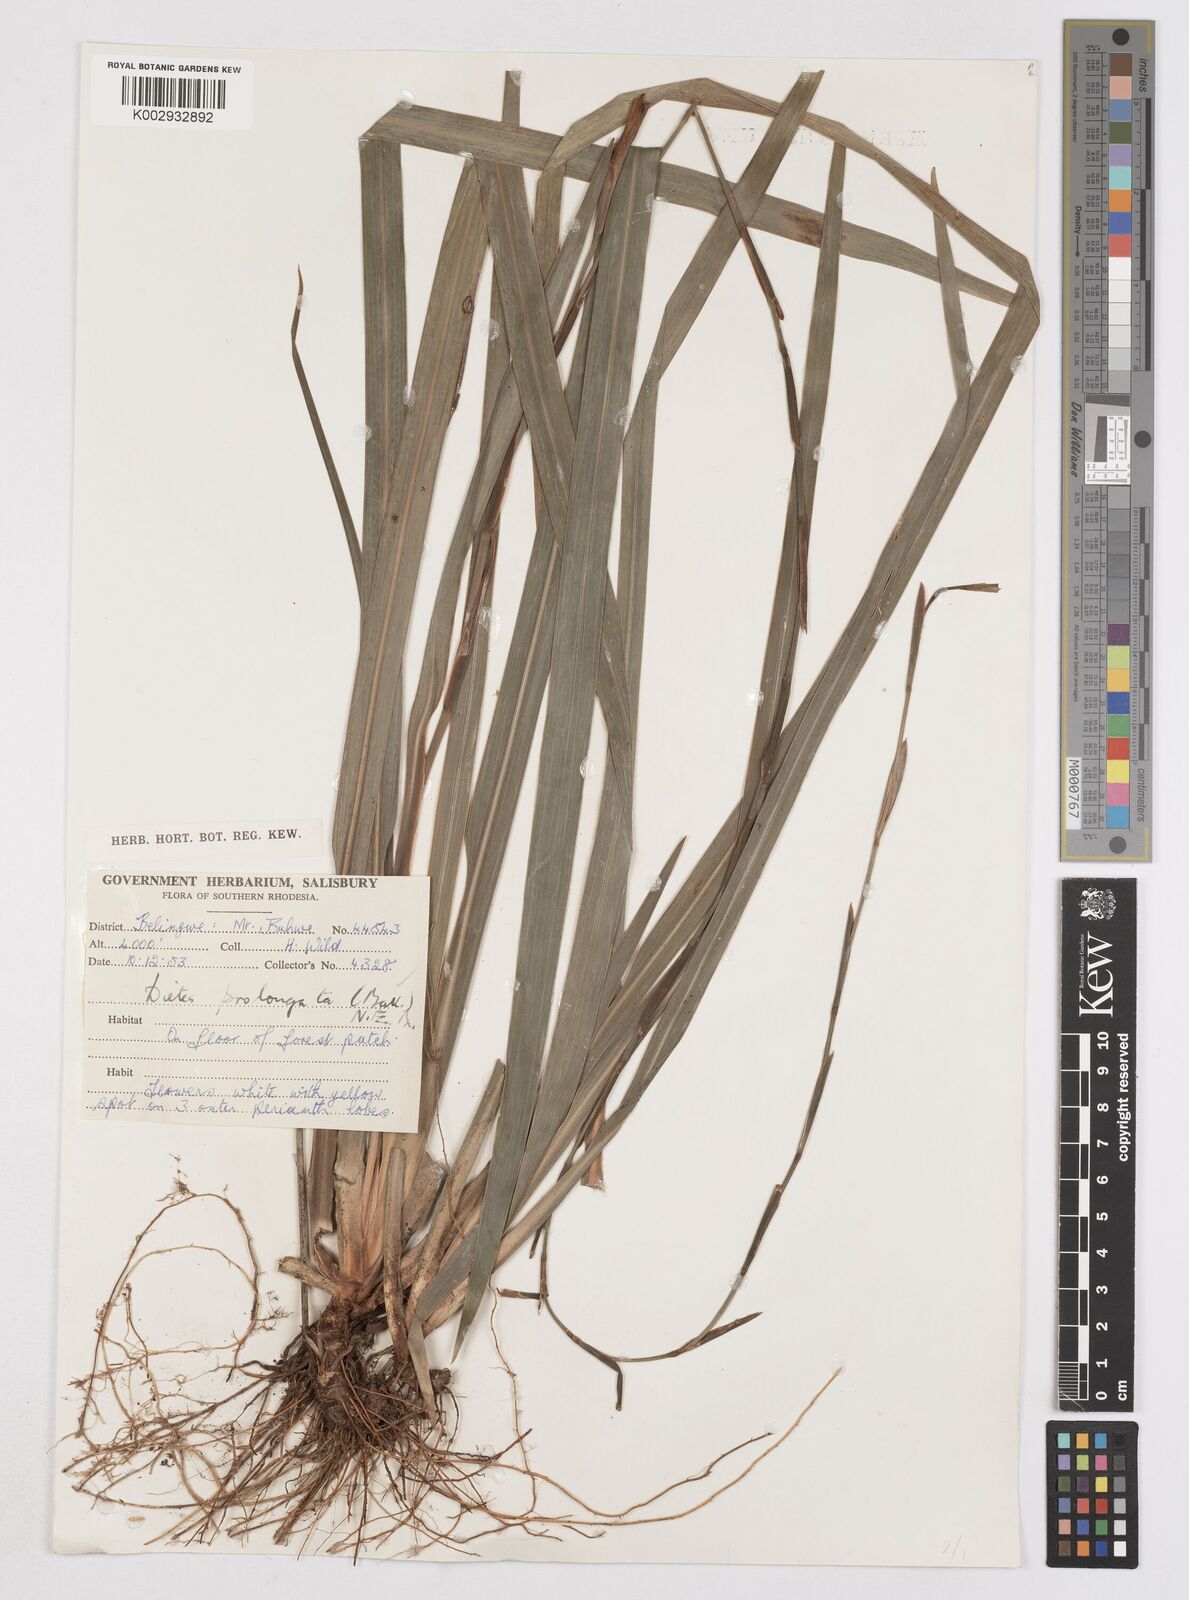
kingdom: Plantae
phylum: Tracheophyta
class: Liliopsida
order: Asparagales
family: Iridaceae
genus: Dietes
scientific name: Dietes
